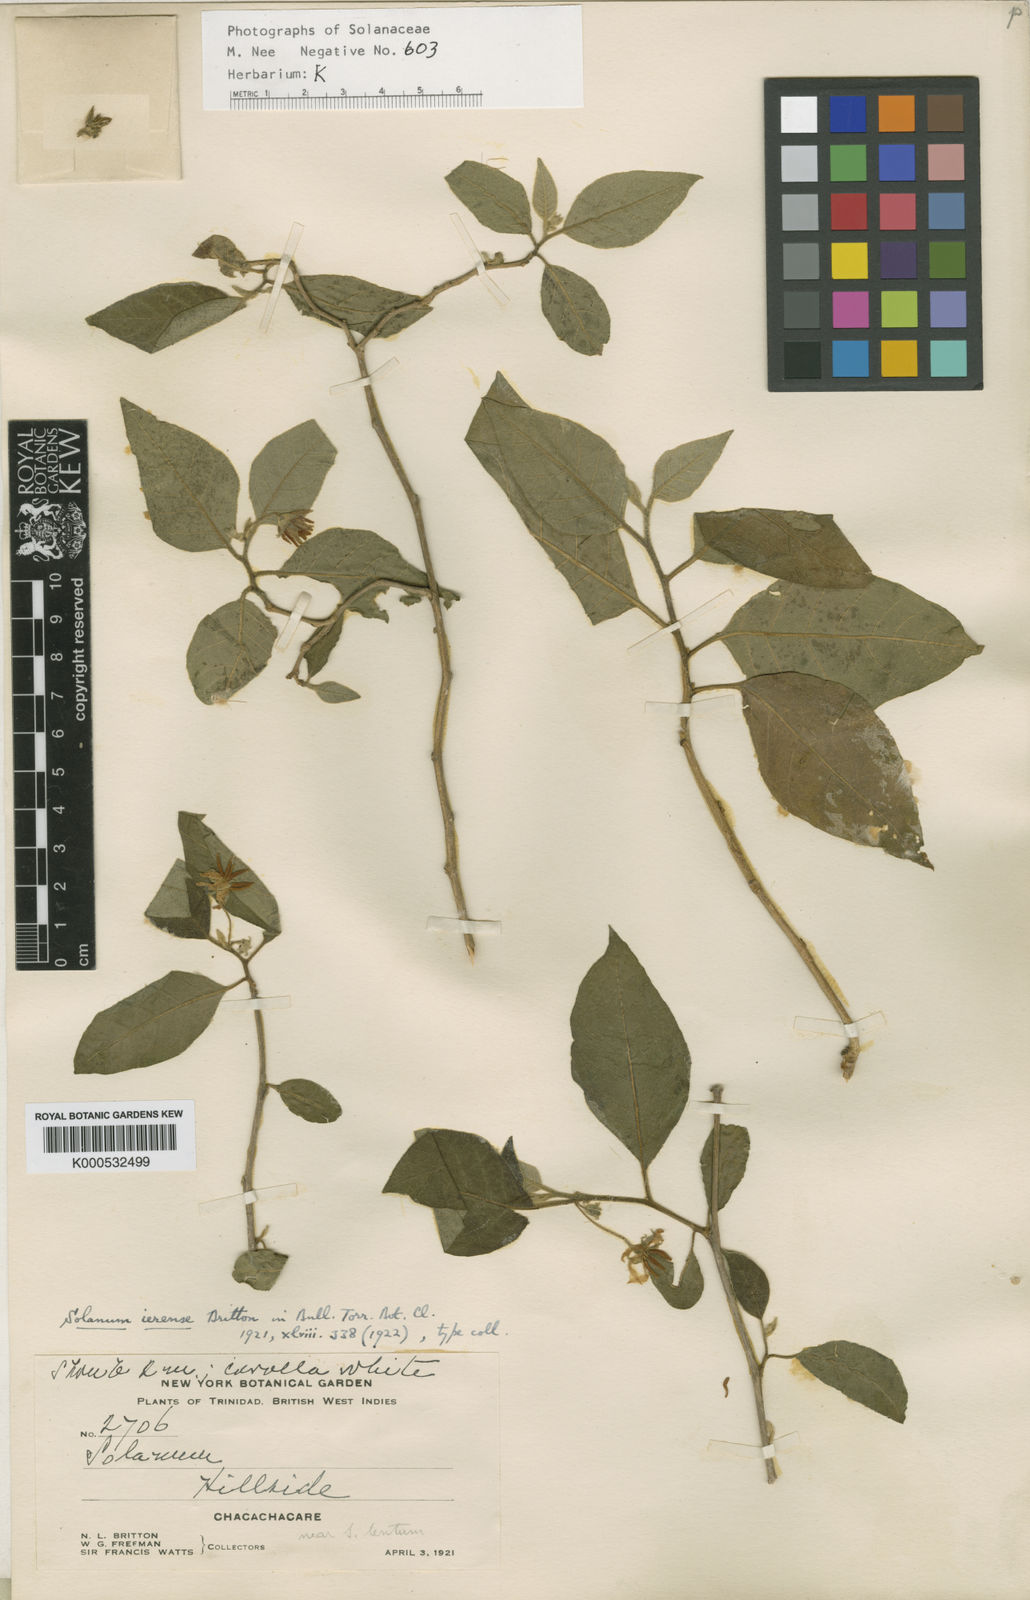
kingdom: Plantae
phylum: Tracheophyta
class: Magnoliopsida
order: Solanales
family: Solanaceae
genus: Solanum
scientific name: Solanum gardneri
